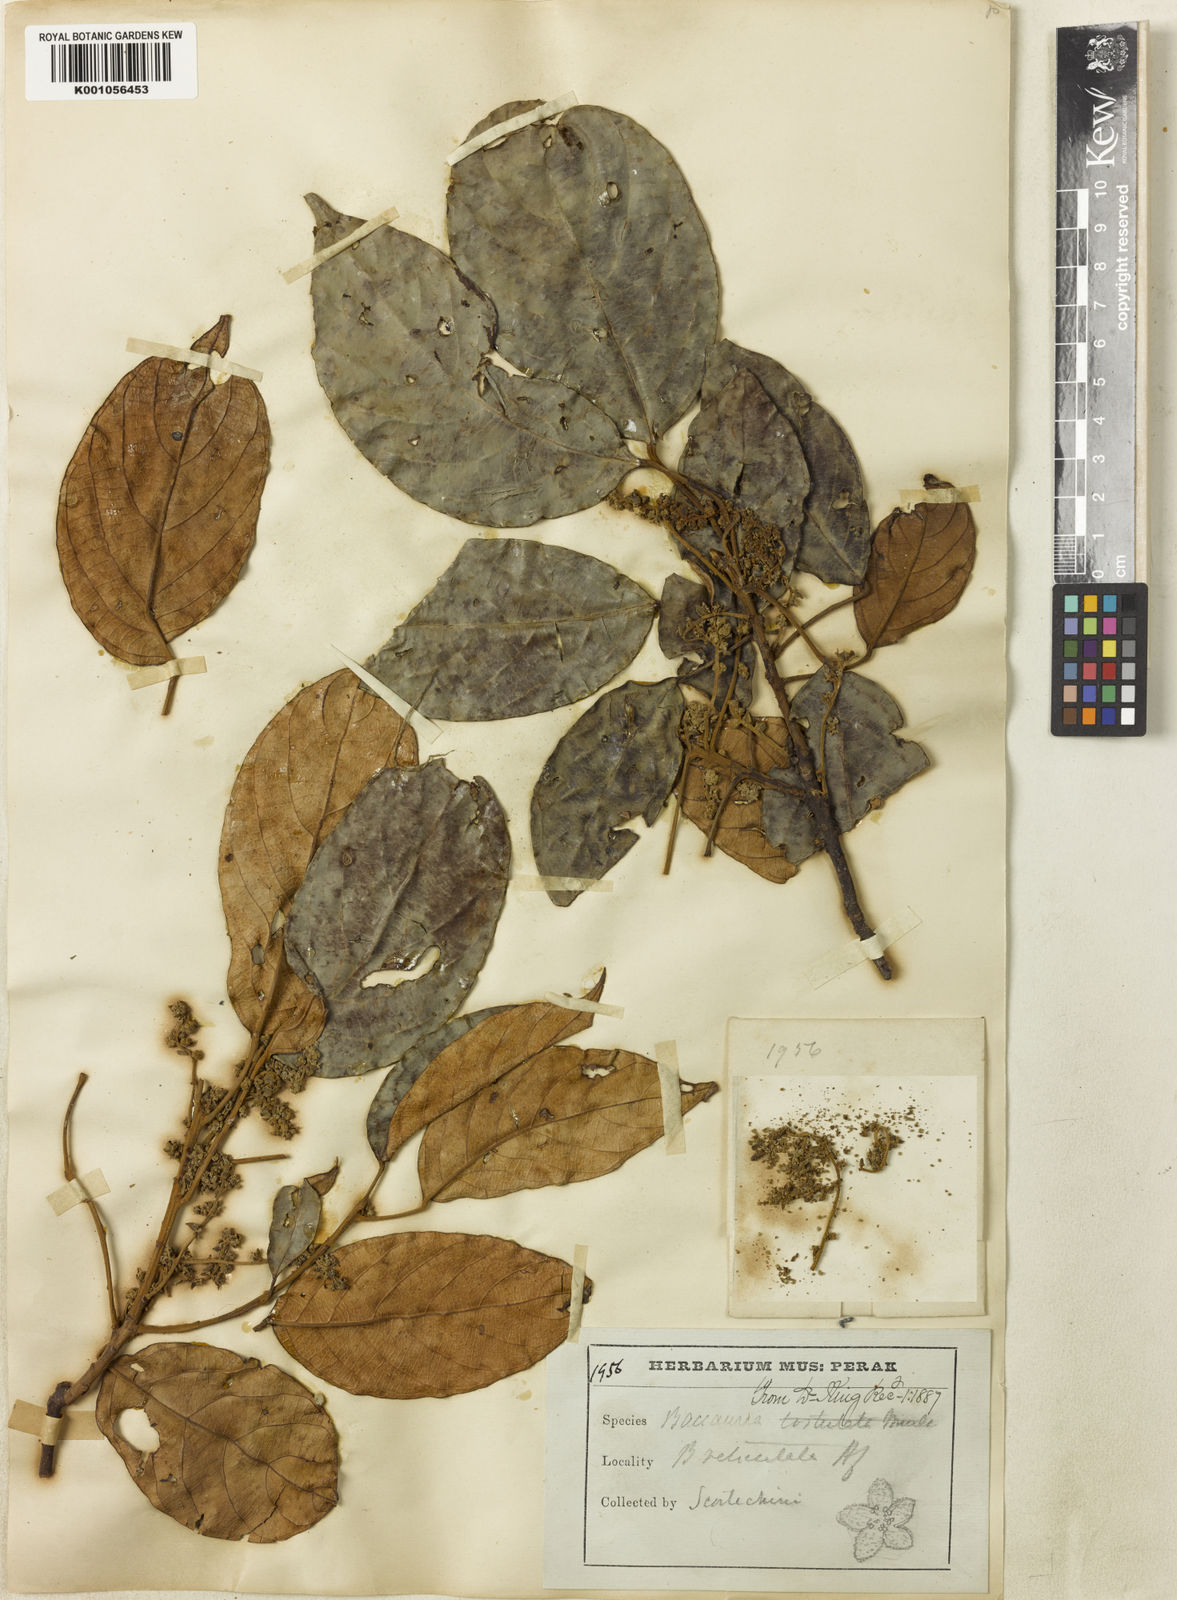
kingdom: Plantae
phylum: Tracheophyta
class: Magnoliopsida
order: Malpighiales
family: Phyllanthaceae
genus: Baccaurea
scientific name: Baccaurea reticulata
